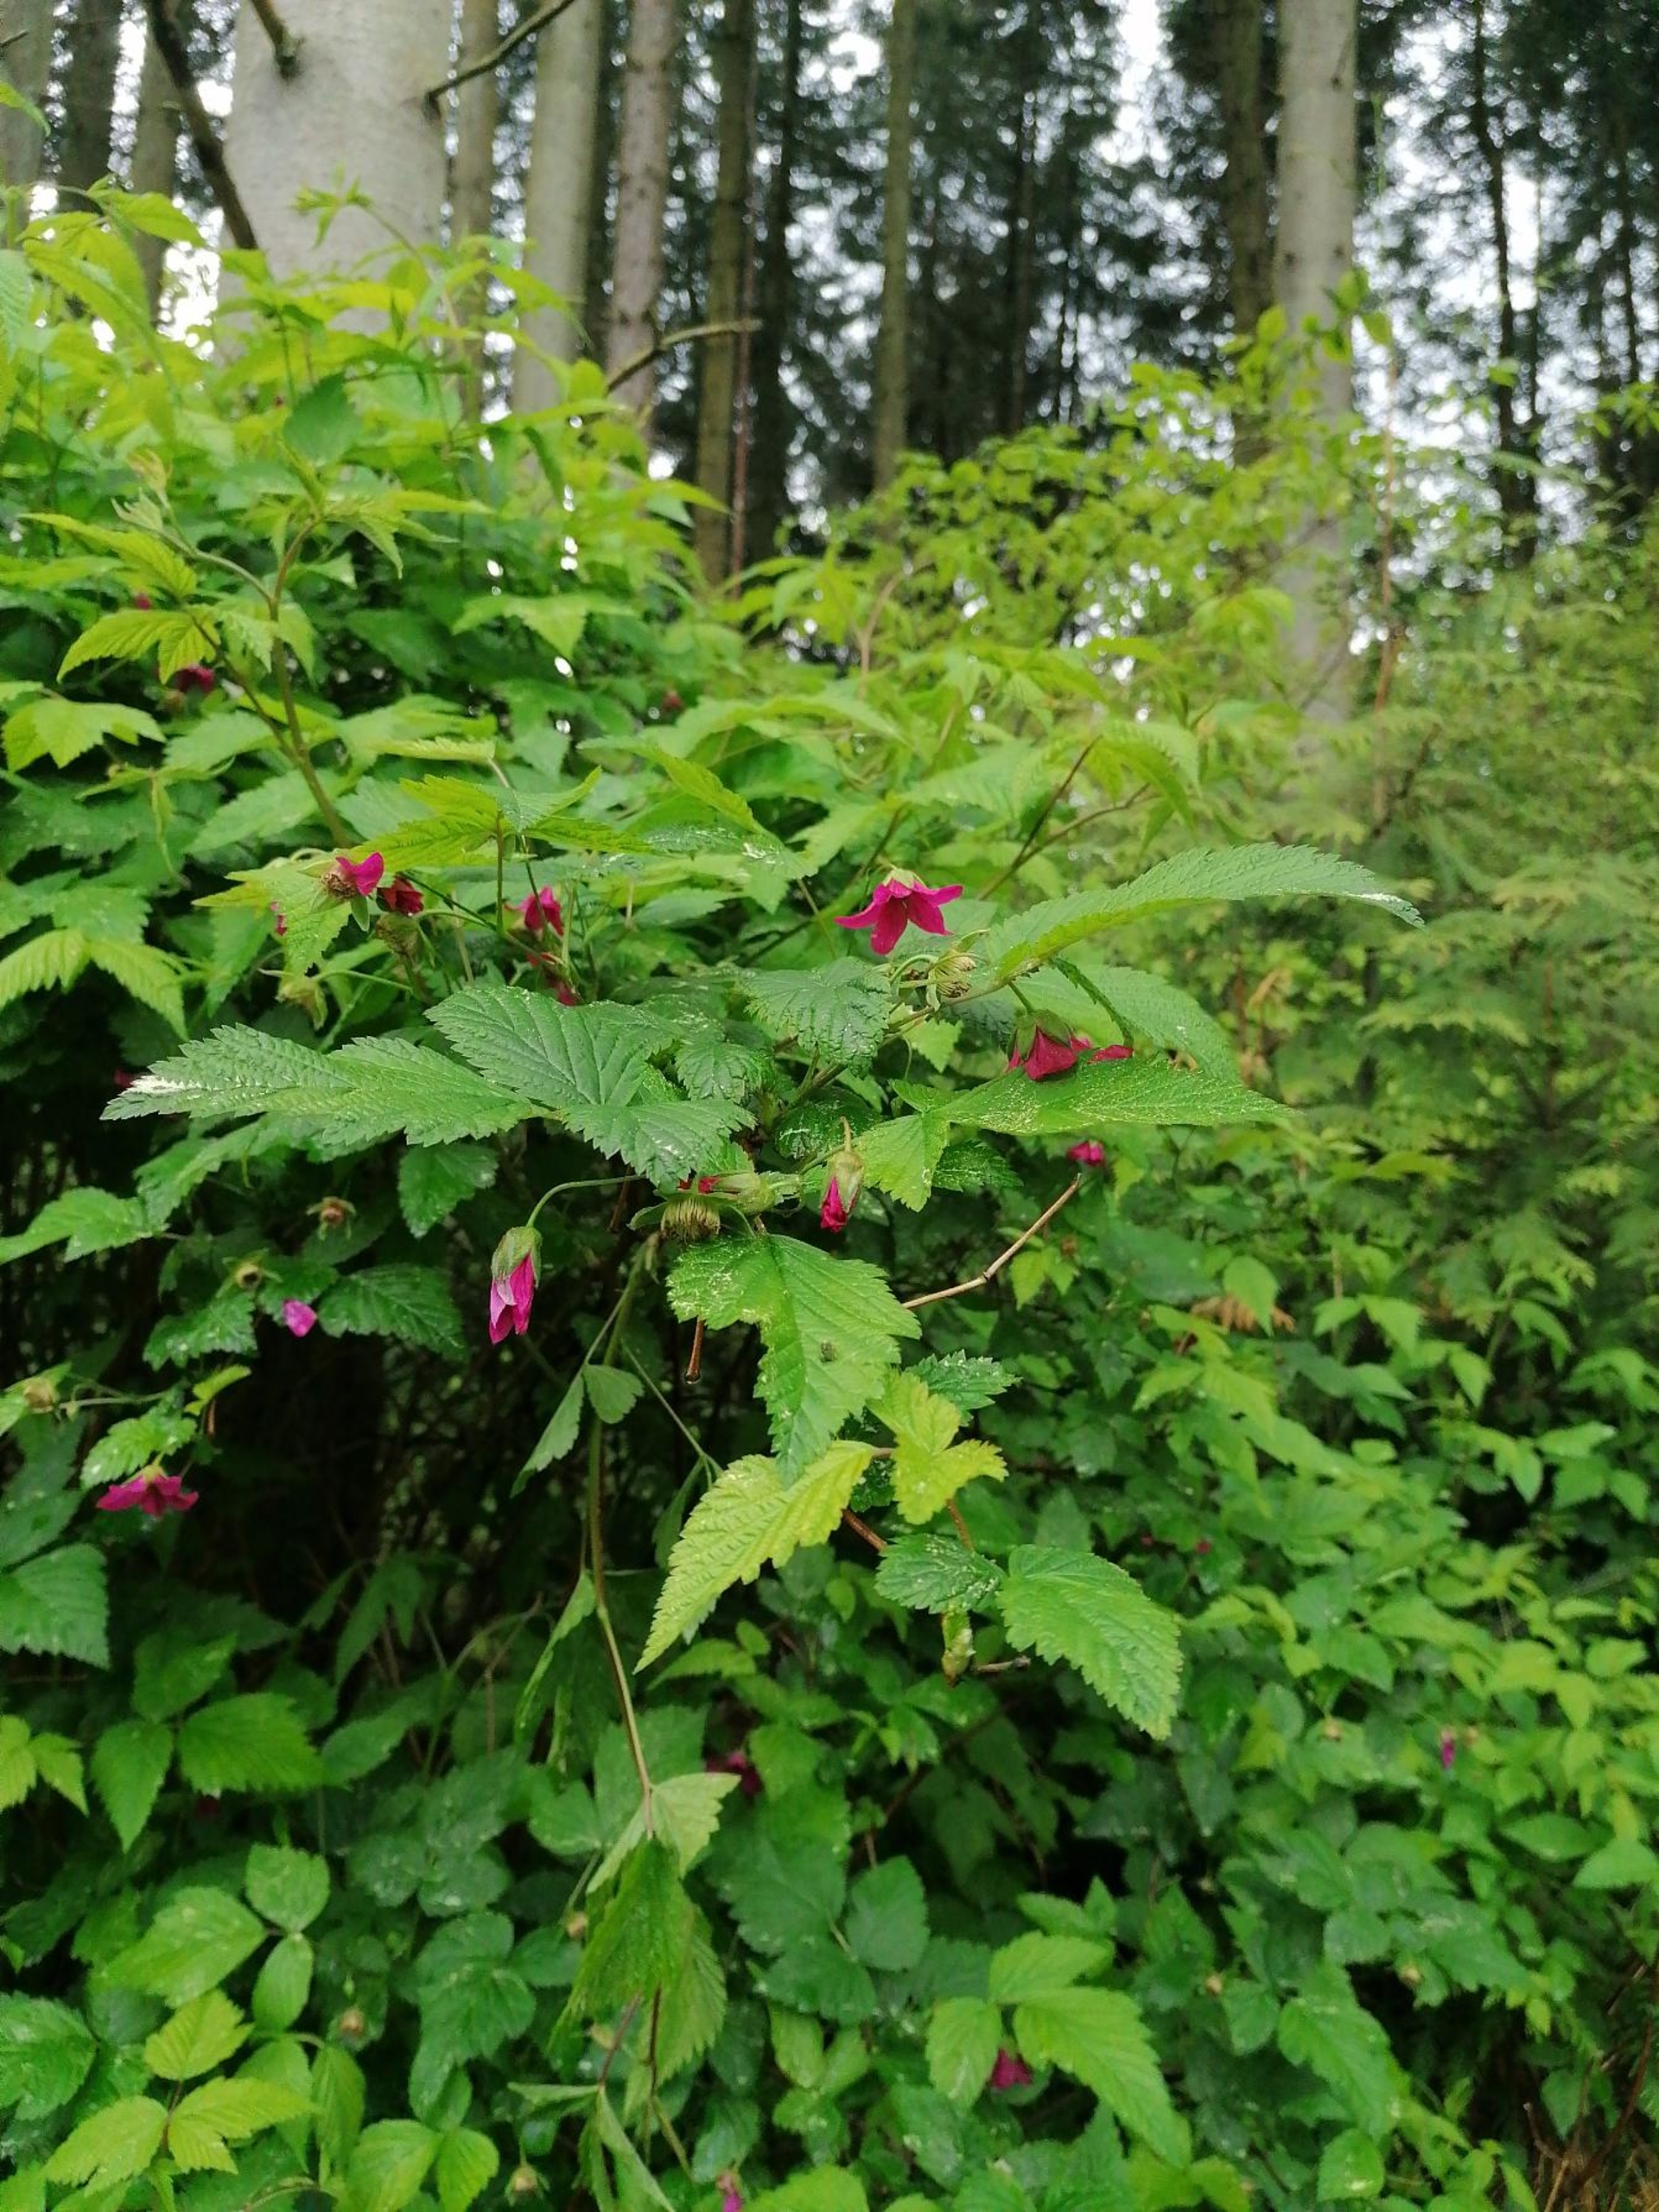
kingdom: Plantae
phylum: Tracheophyta
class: Magnoliopsida
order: Rosales
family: Rosaceae
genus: Rubus
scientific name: Rubus spectabilis
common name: Laksebær
